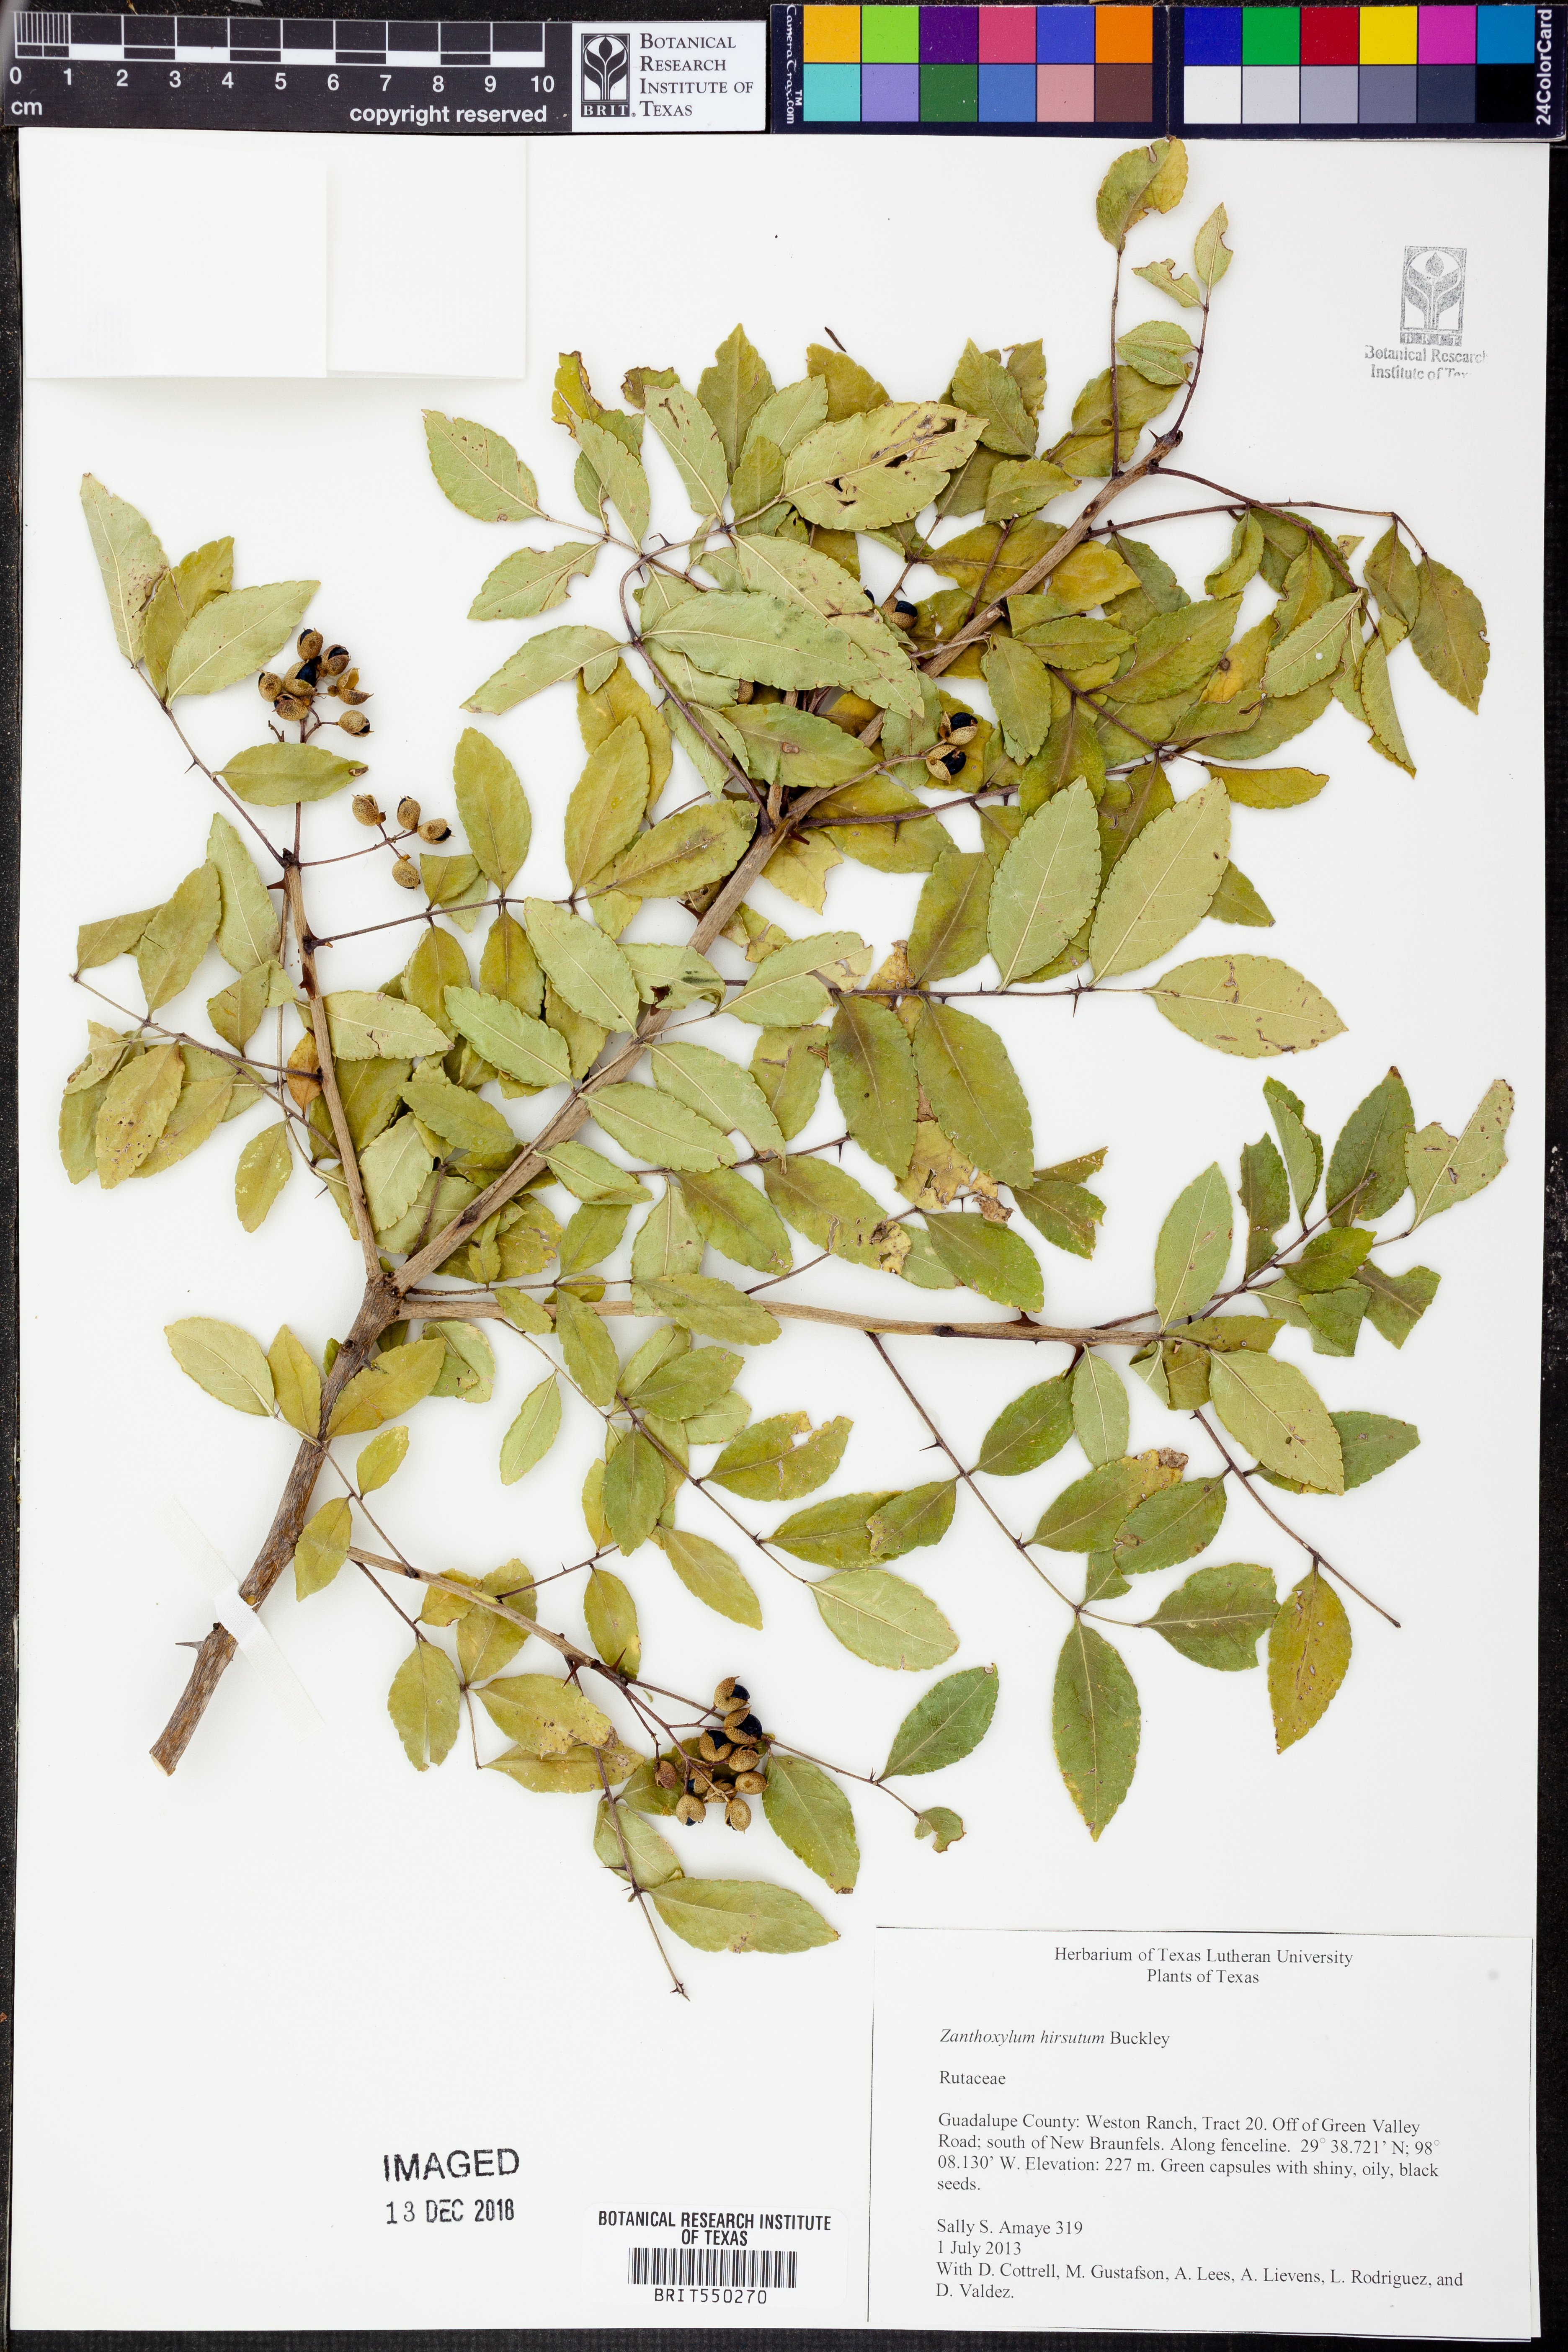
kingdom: Plantae
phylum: Tracheophyta
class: Magnoliopsida
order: Sapindales
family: Rutaceae
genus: Zanthoxylum
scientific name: Zanthoxylum clava-herculis
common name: Hercules'-club
